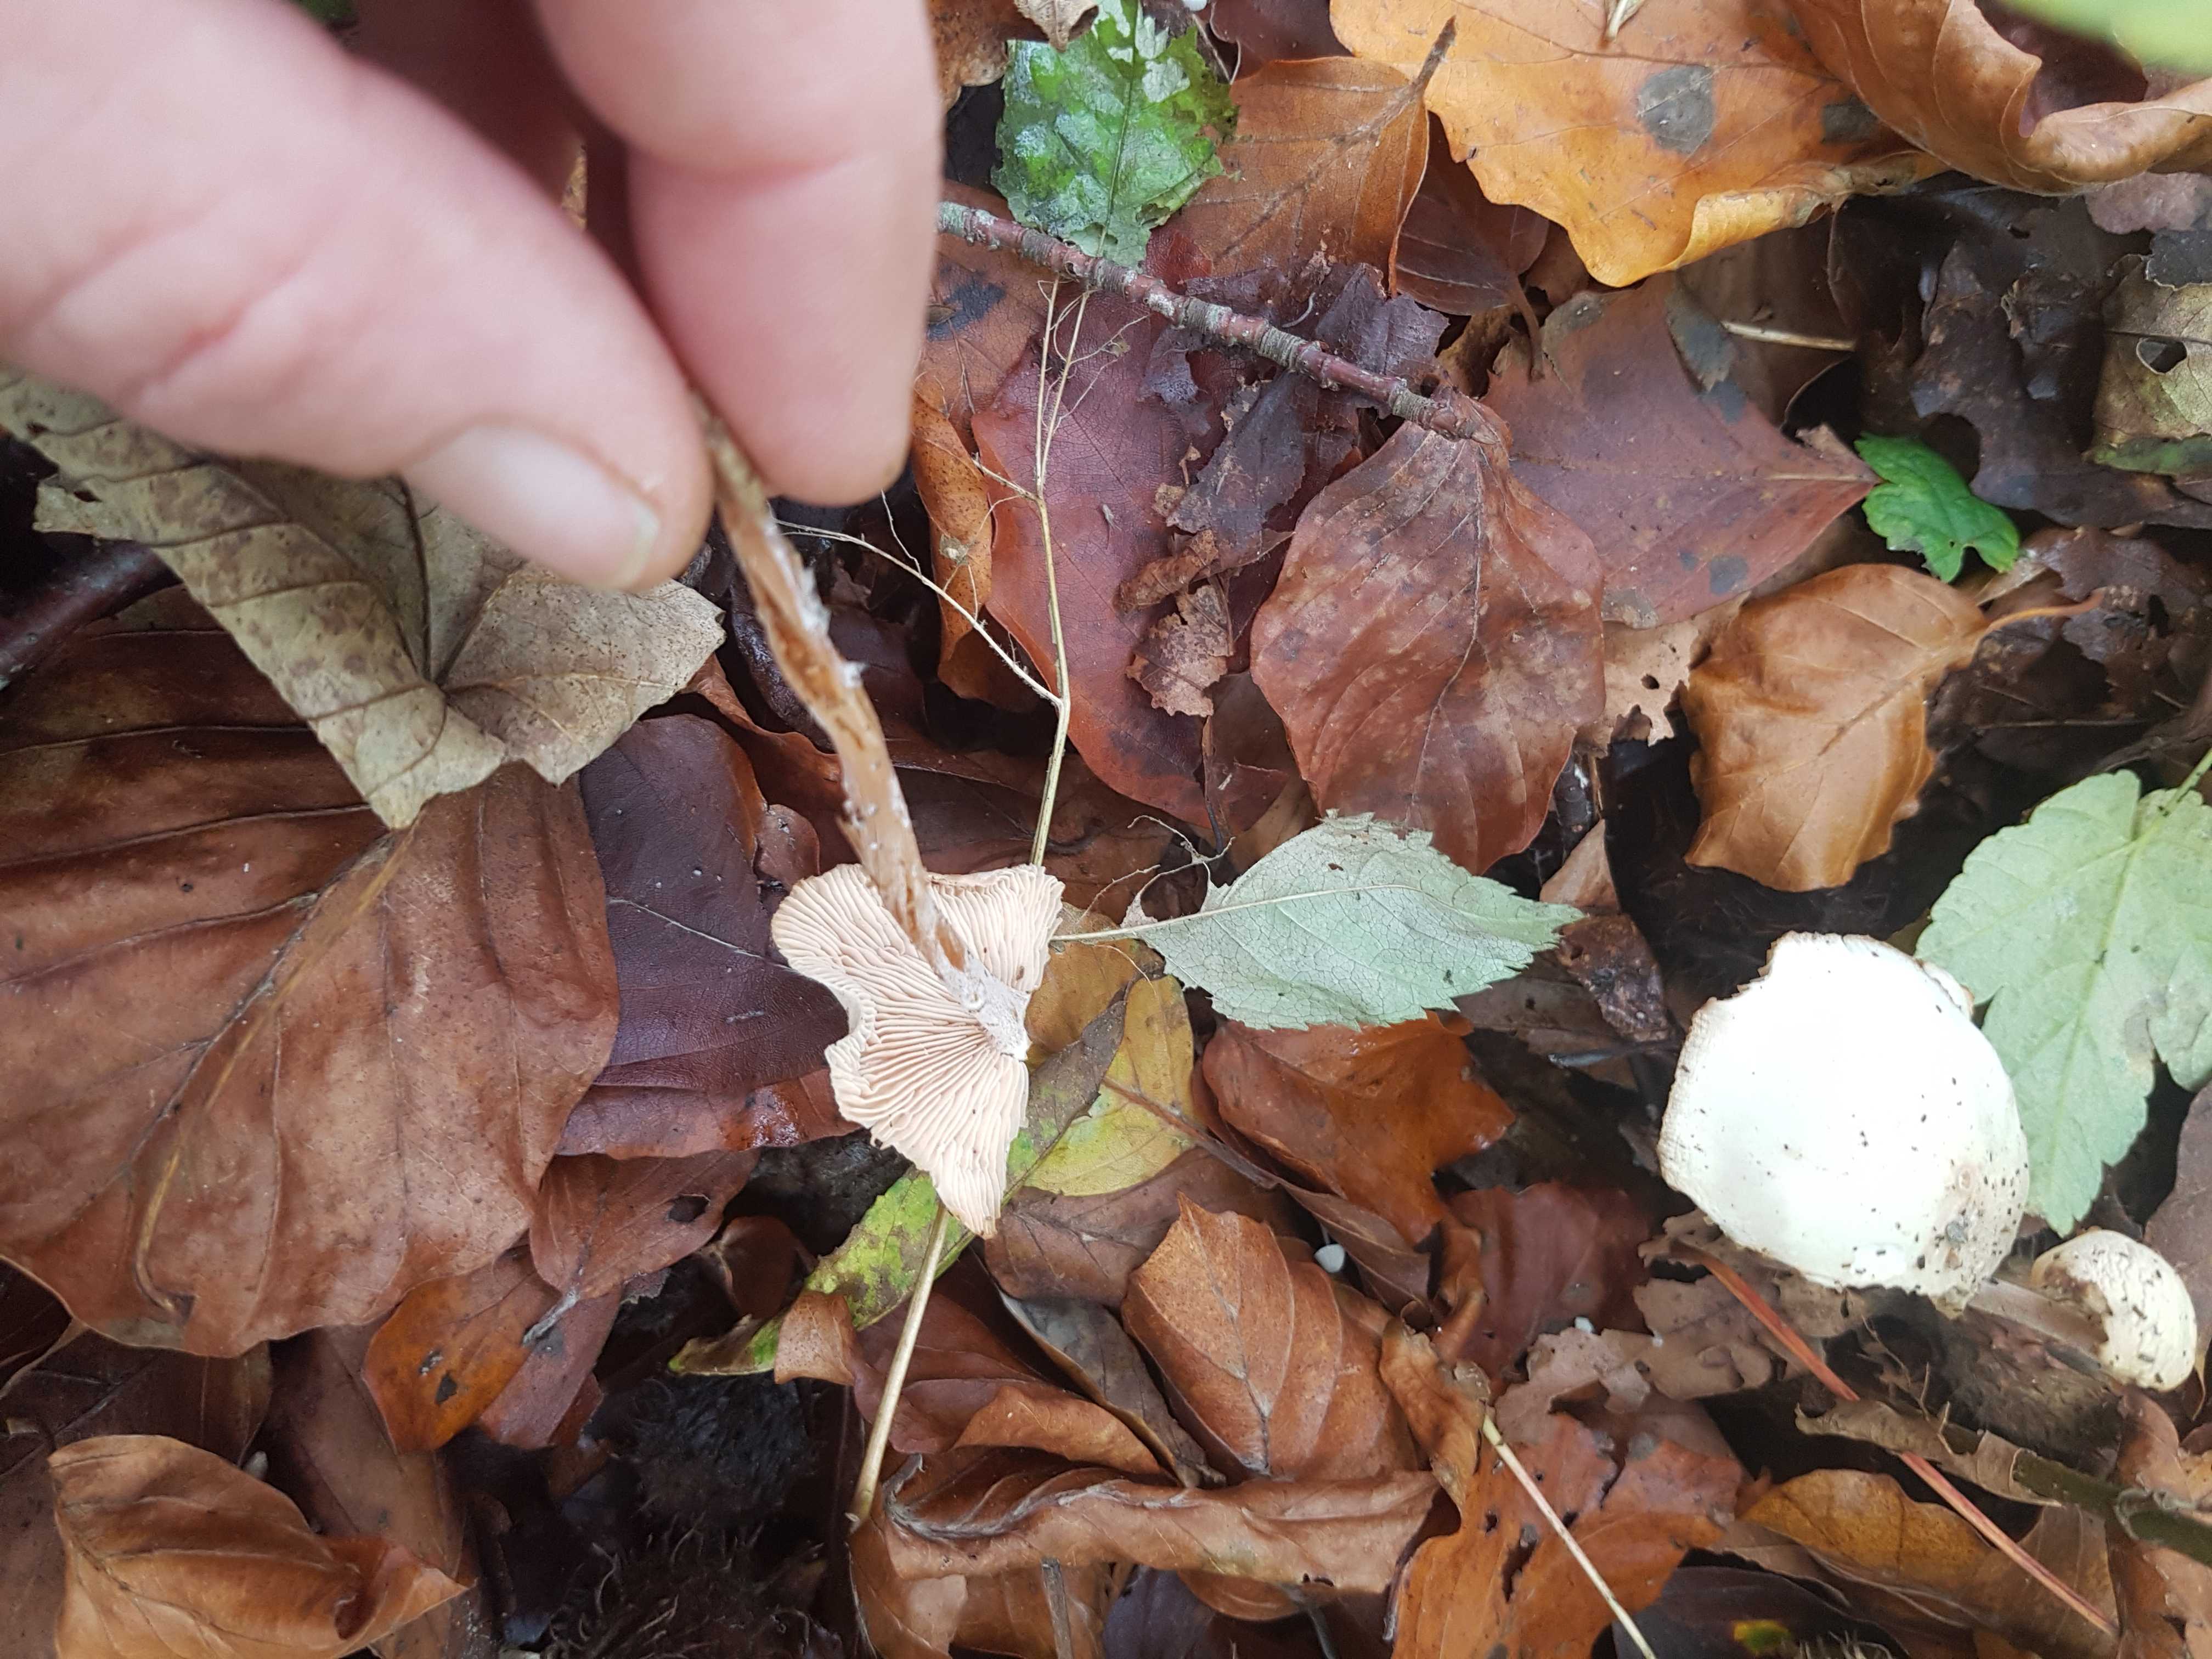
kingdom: Fungi
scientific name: Fungi
